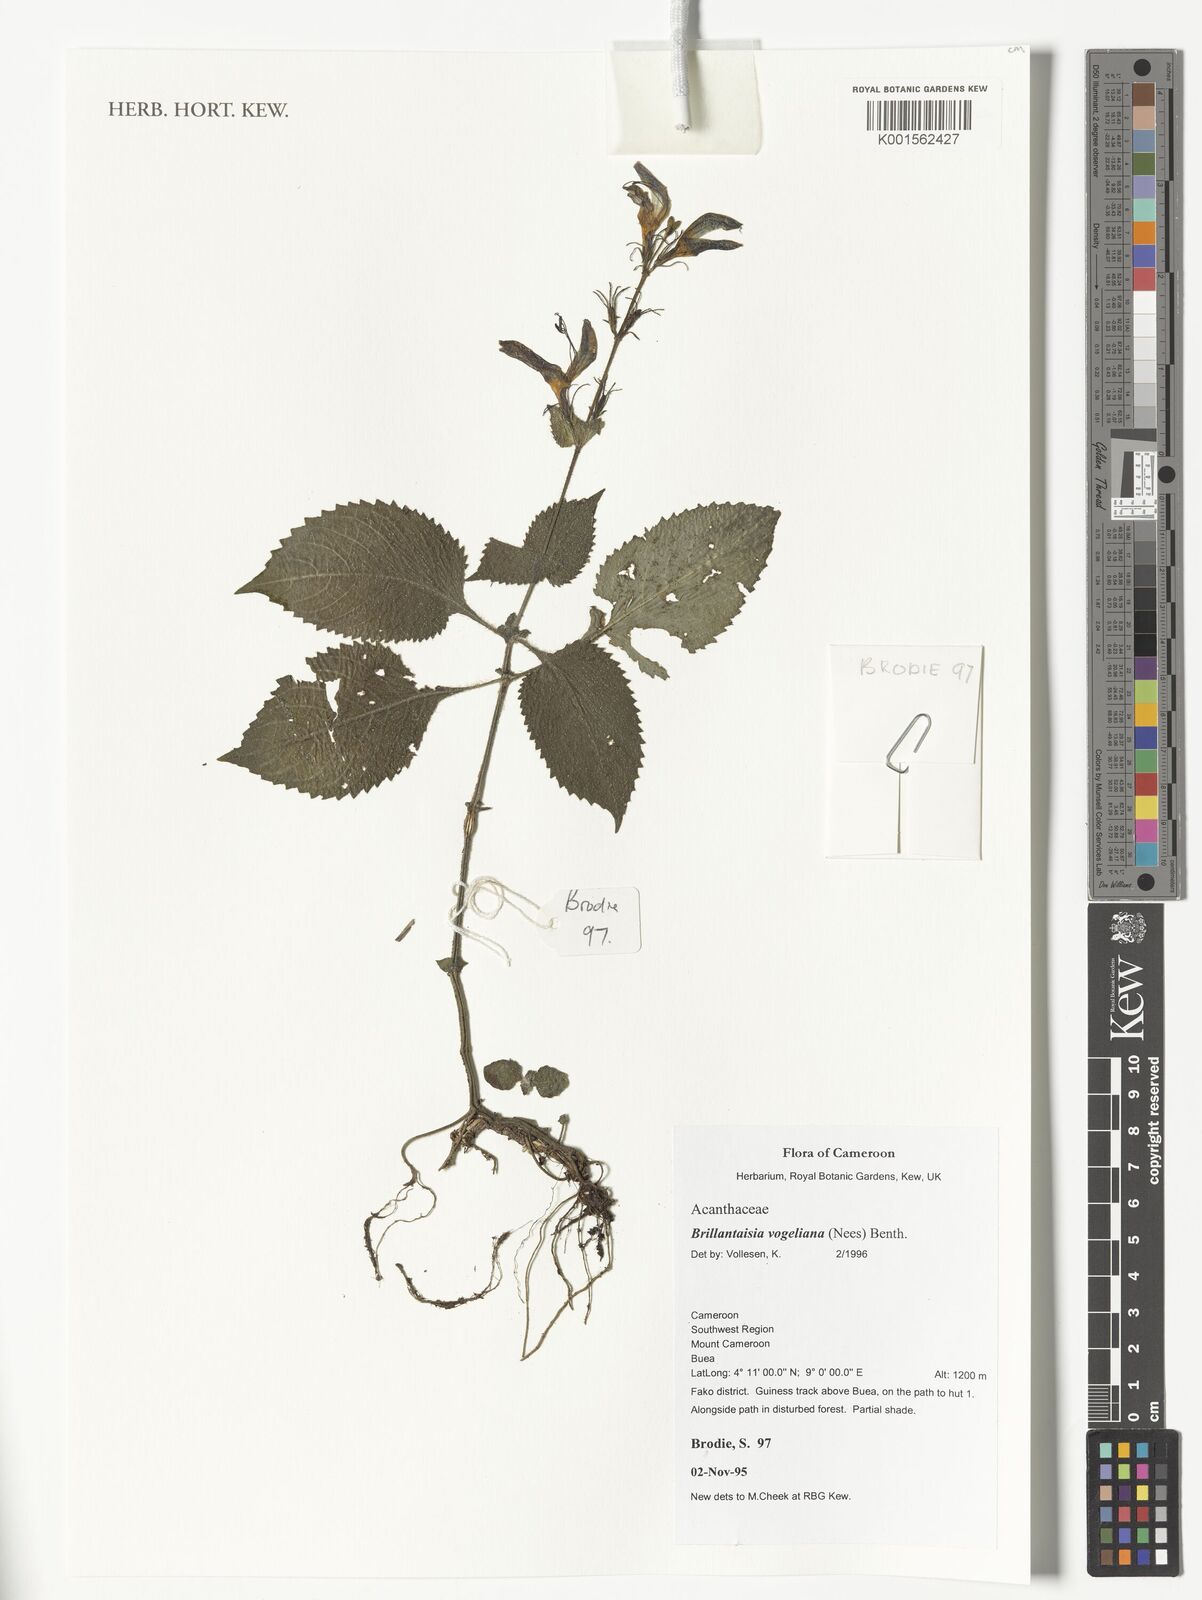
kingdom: Plantae
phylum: Tracheophyta
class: Magnoliopsida
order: Lamiales
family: Acanthaceae
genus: Brillantaisia
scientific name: Brillantaisia vogeliana
